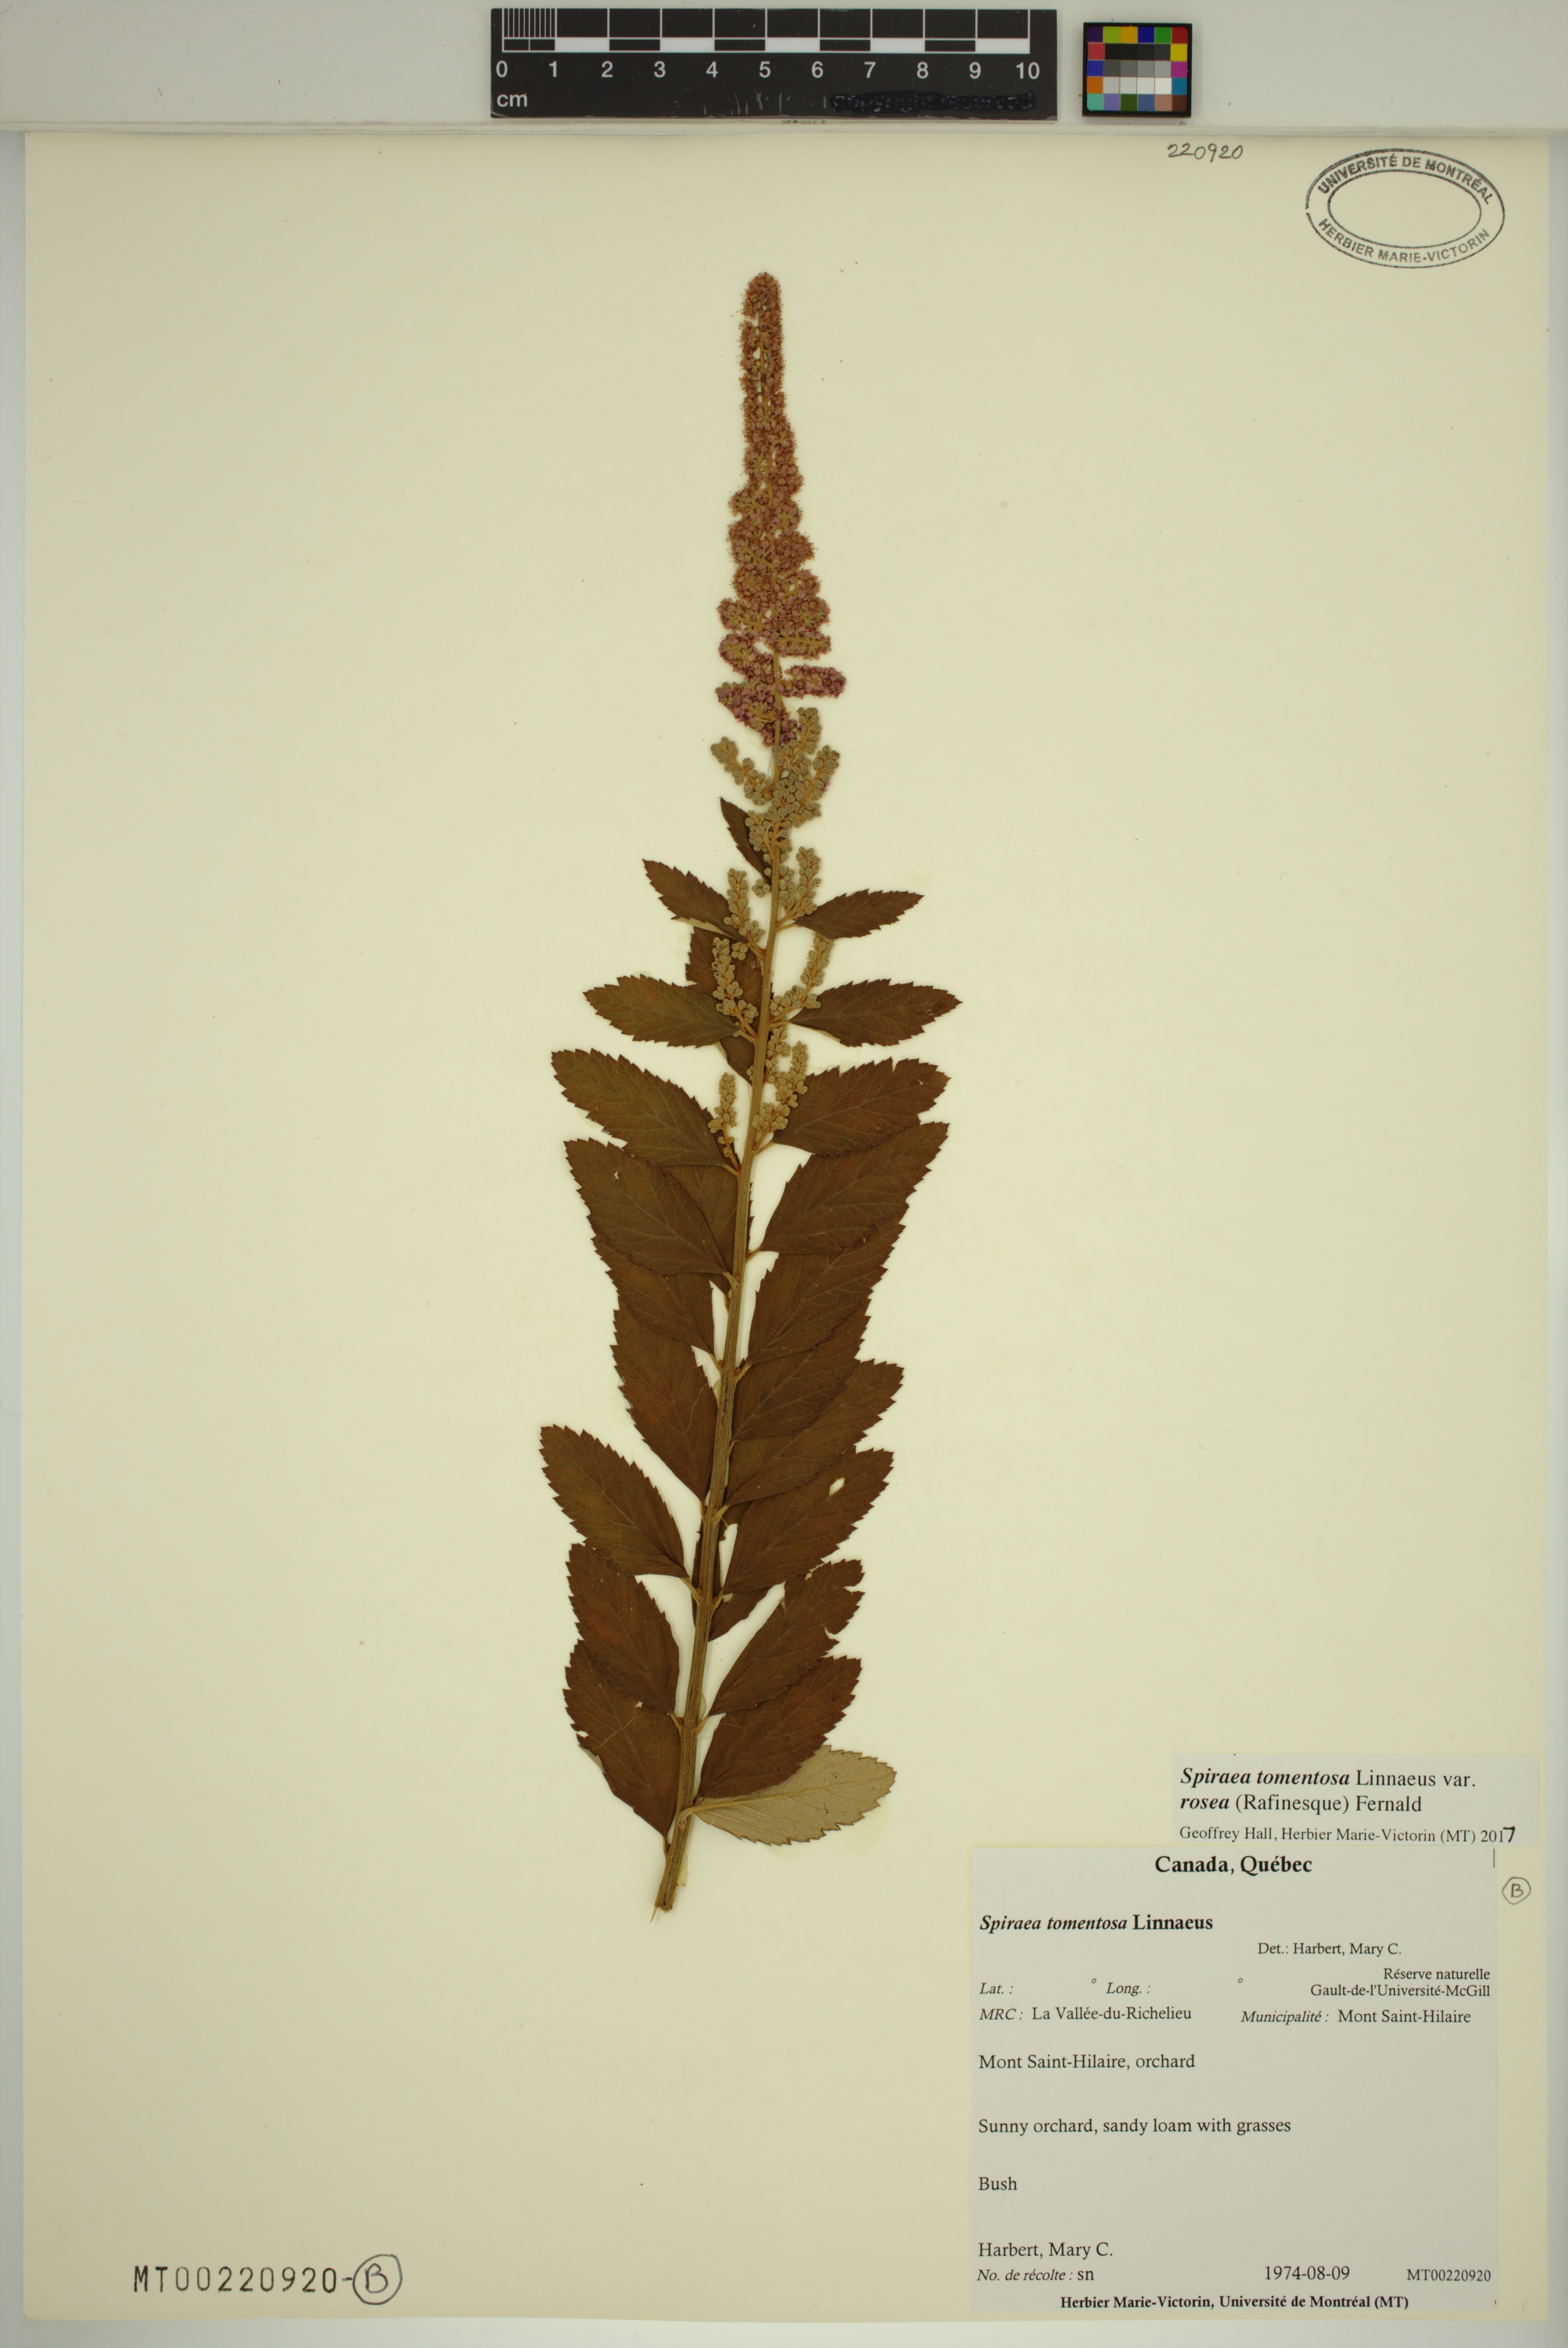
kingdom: Plantae
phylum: Tracheophyta
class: Magnoliopsida
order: Rosales
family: Rosaceae
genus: Spiraea
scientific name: Spiraea tomentosa
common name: Hardhack
